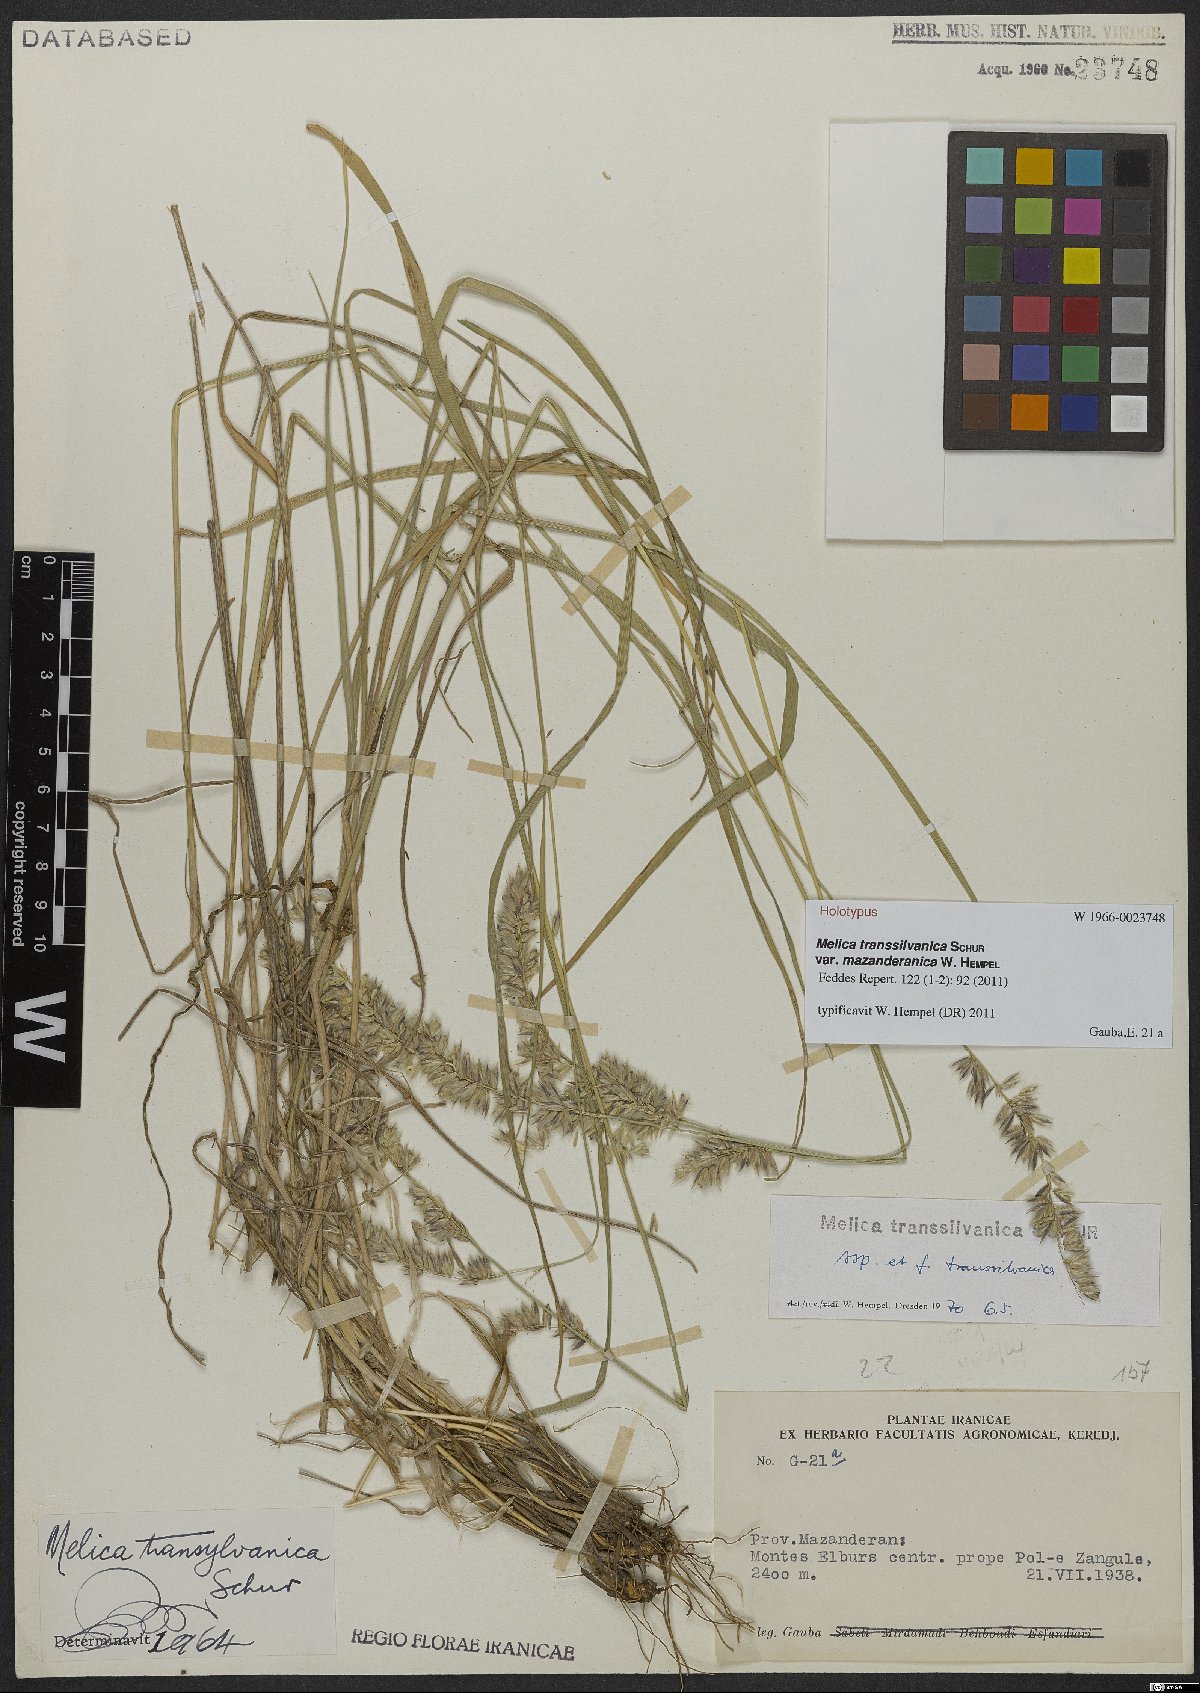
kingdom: Plantae
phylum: Tracheophyta
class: Liliopsida
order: Poales
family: Poaceae
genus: Melica
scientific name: Melica transsilvanica
